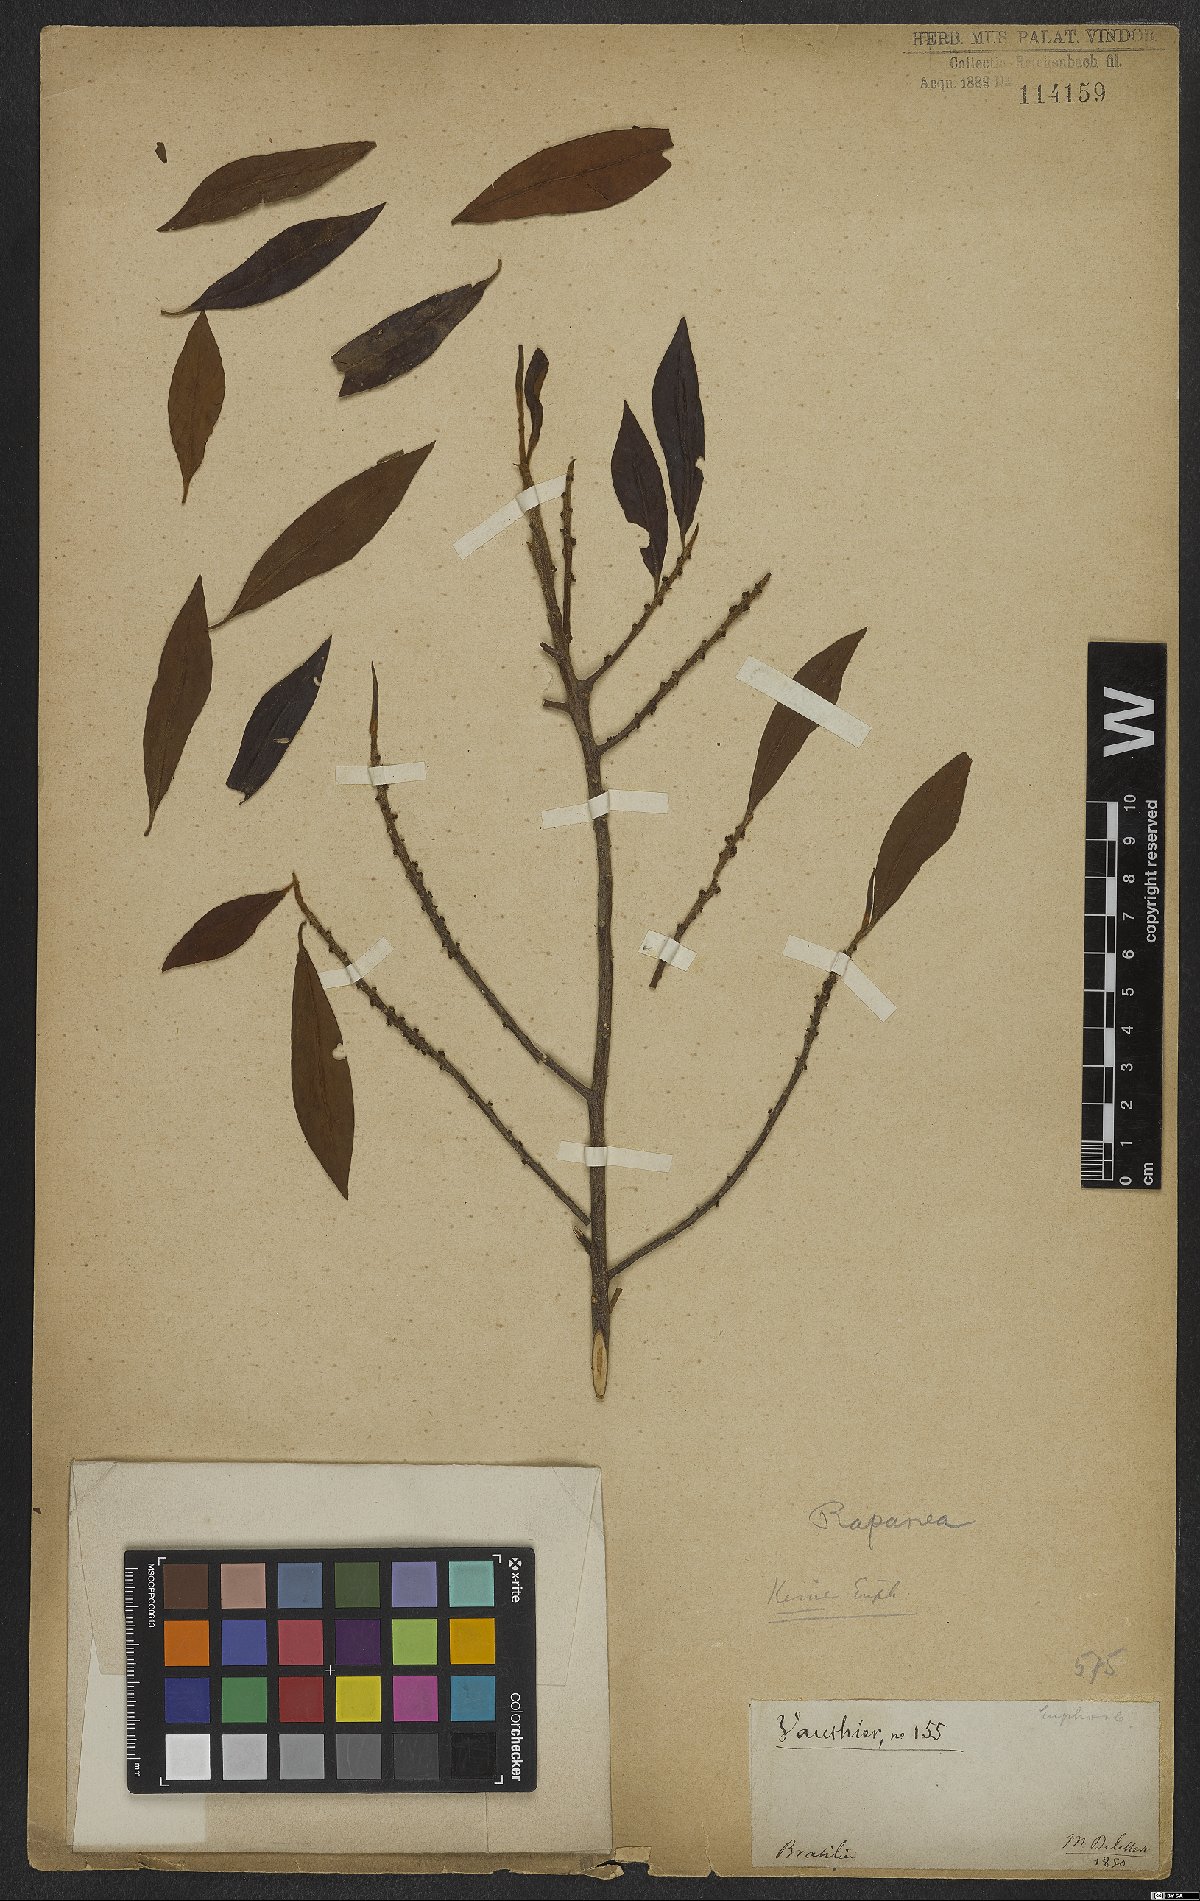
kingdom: Plantae
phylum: Tracheophyta
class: Magnoliopsida
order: Ericales
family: Primulaceae
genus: Myrsine
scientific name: Myrsine
